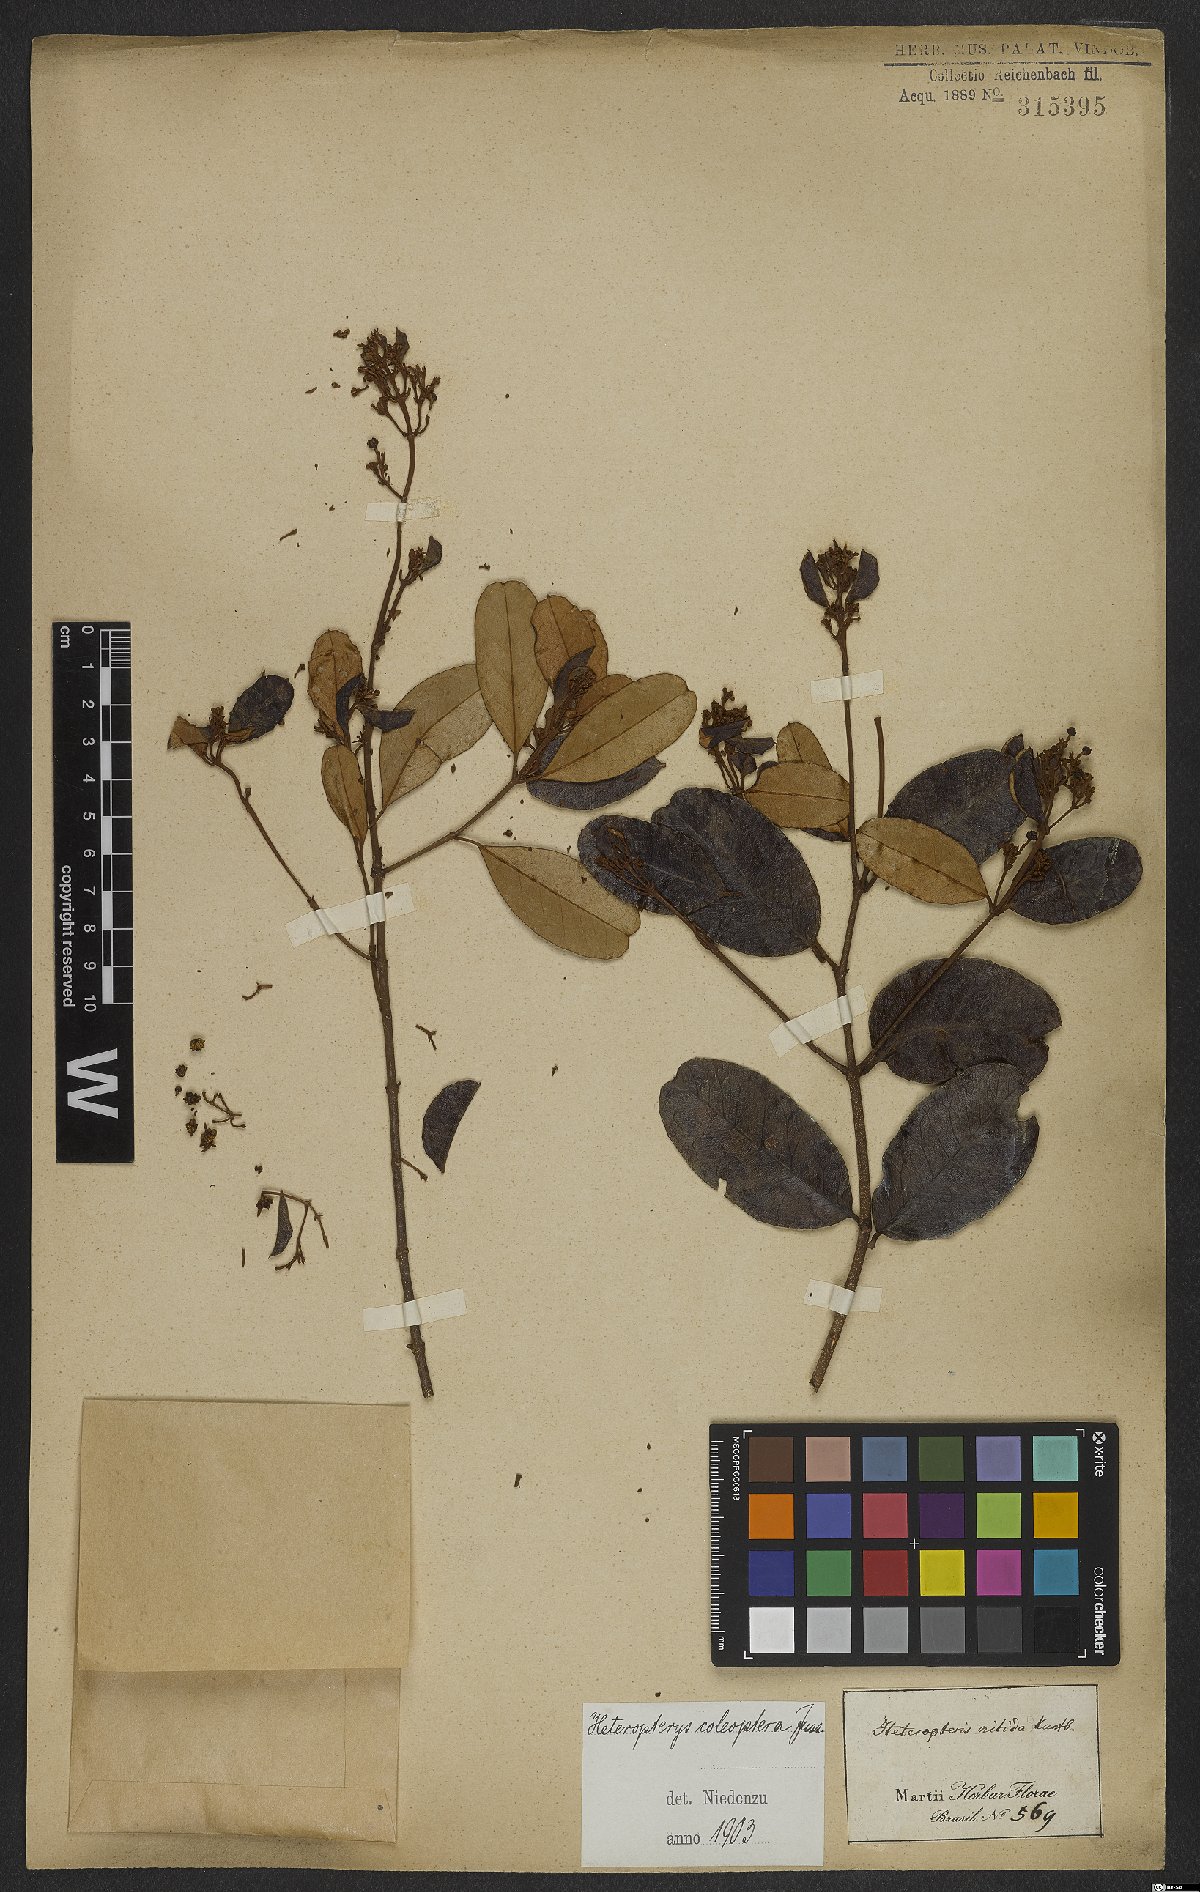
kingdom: Plantae
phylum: Tracheophyta
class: Magnoliopsida
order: Malpighiales
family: Malpighiaceae
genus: Heteropterys
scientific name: Heteropterys coleoptera
